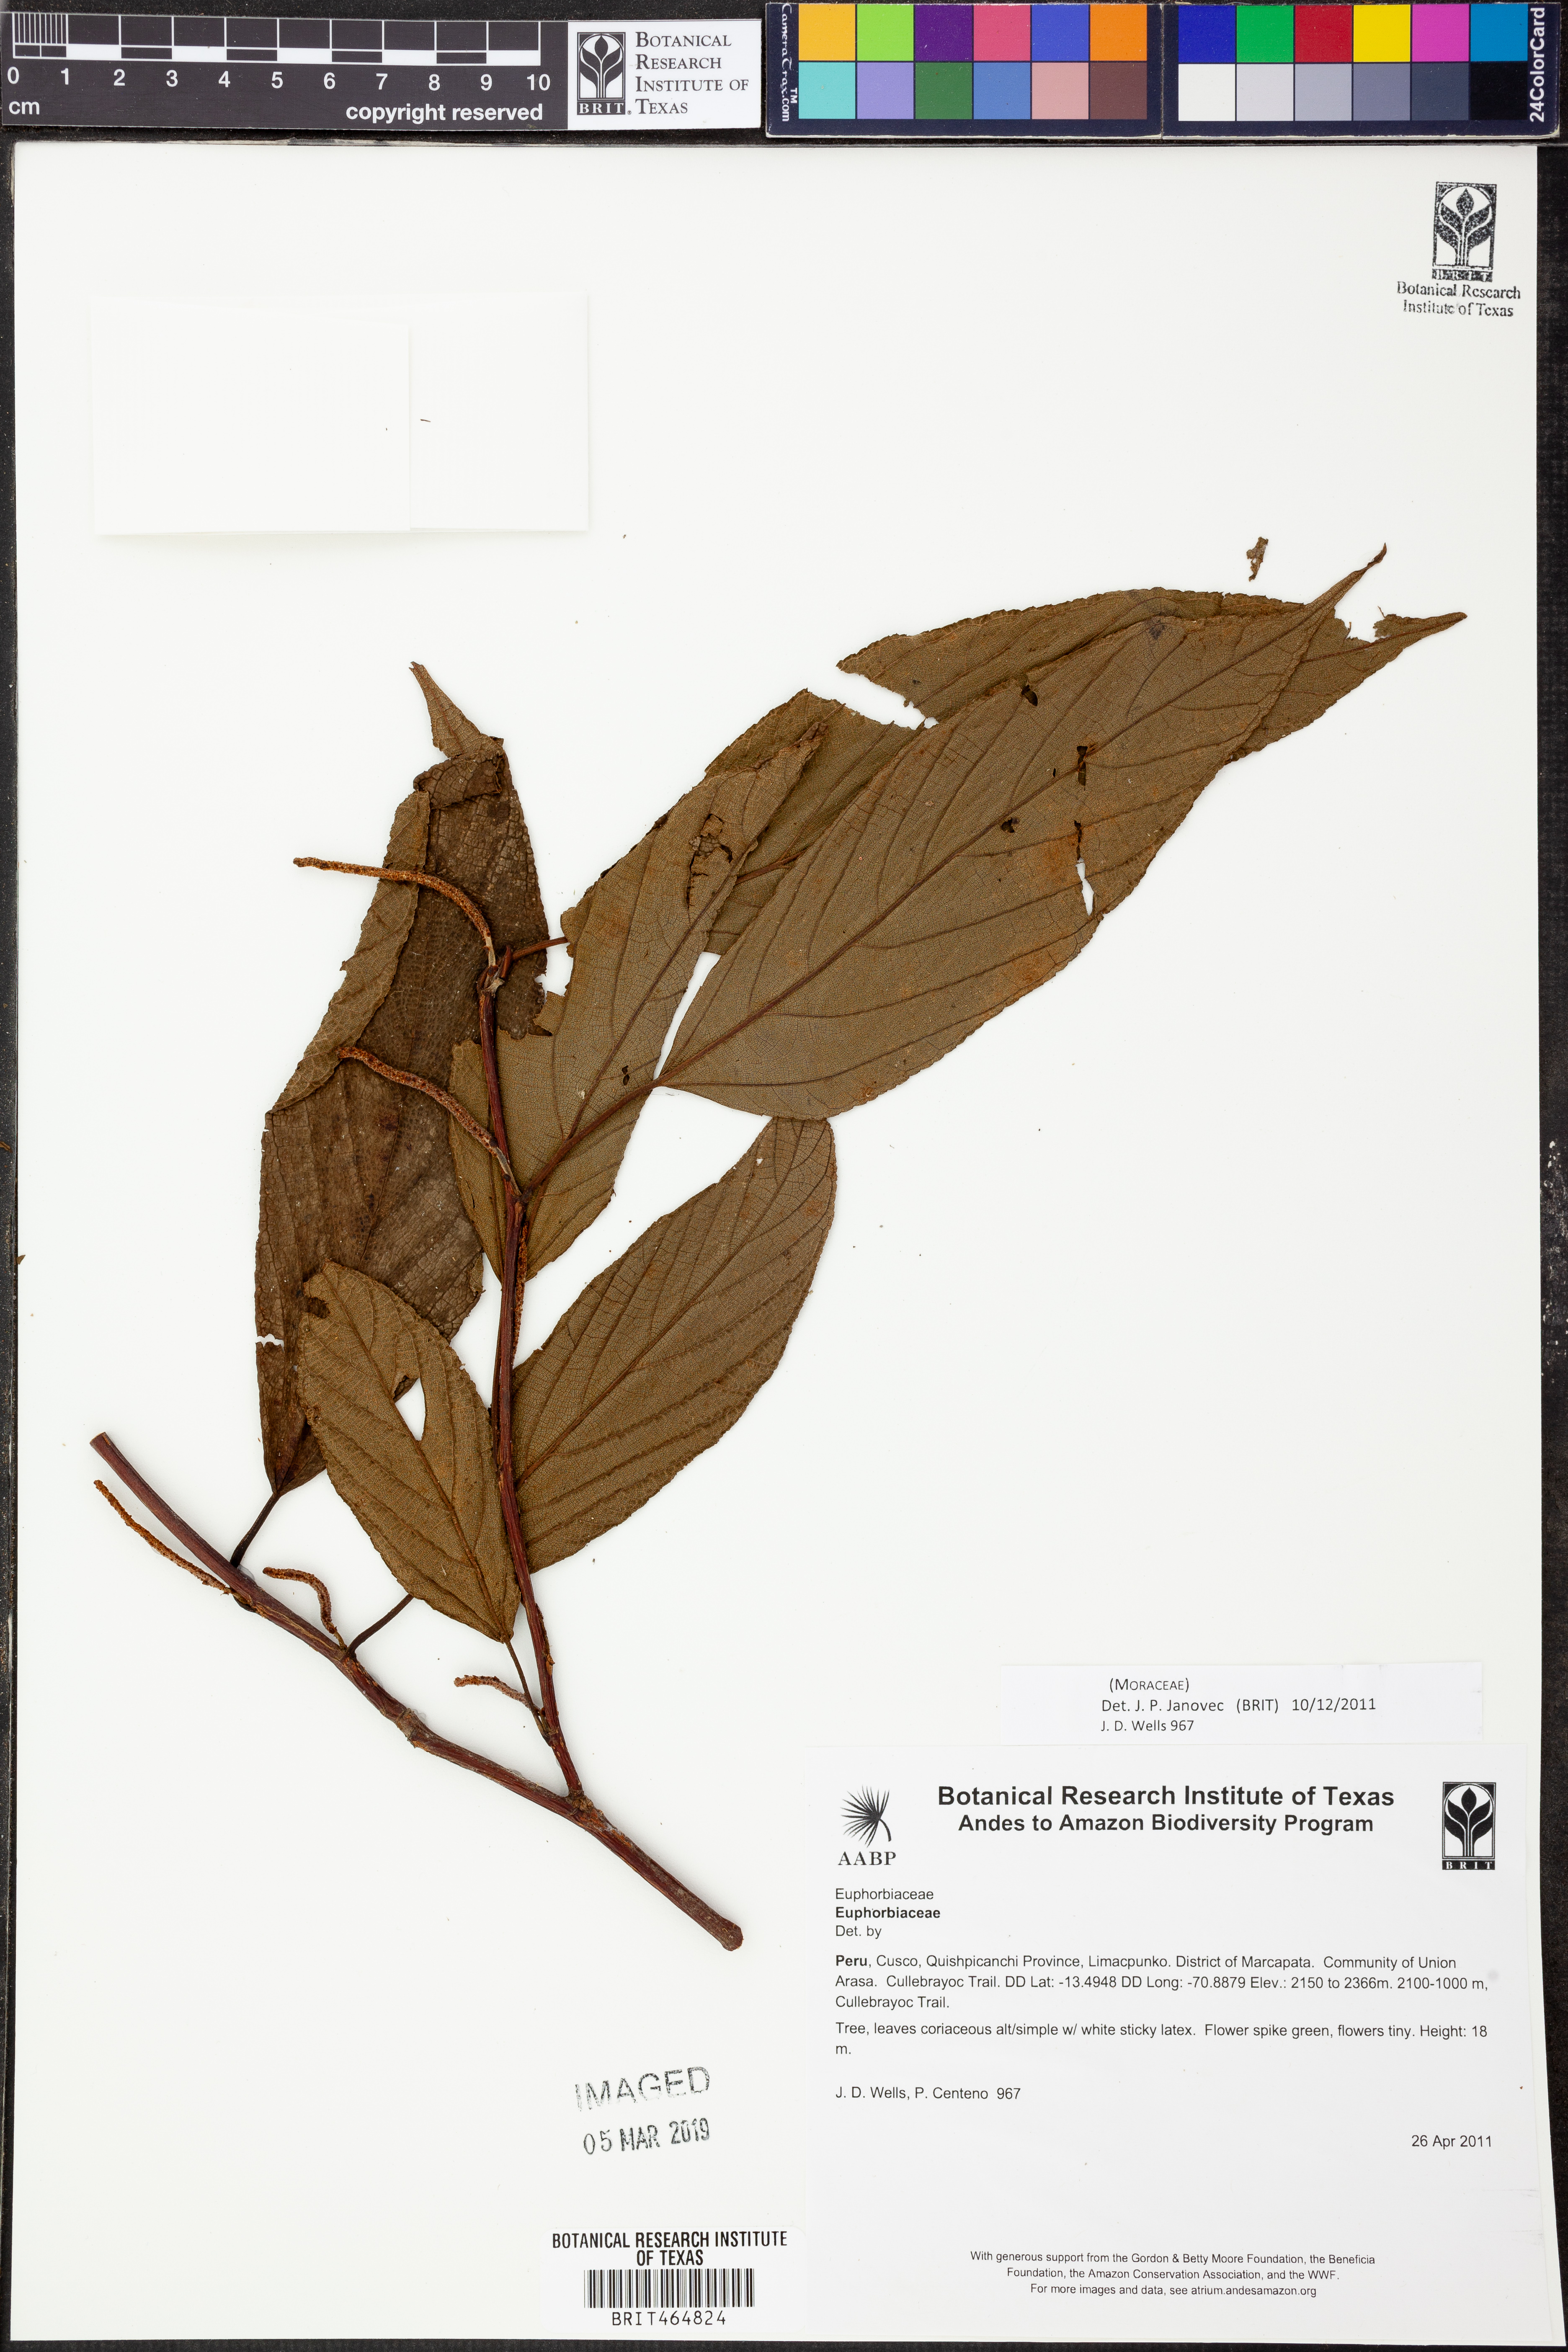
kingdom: Plantae
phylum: Tracheophyta
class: Magnoliopsida
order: Rosales
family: Moraceae
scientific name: Moraceae
